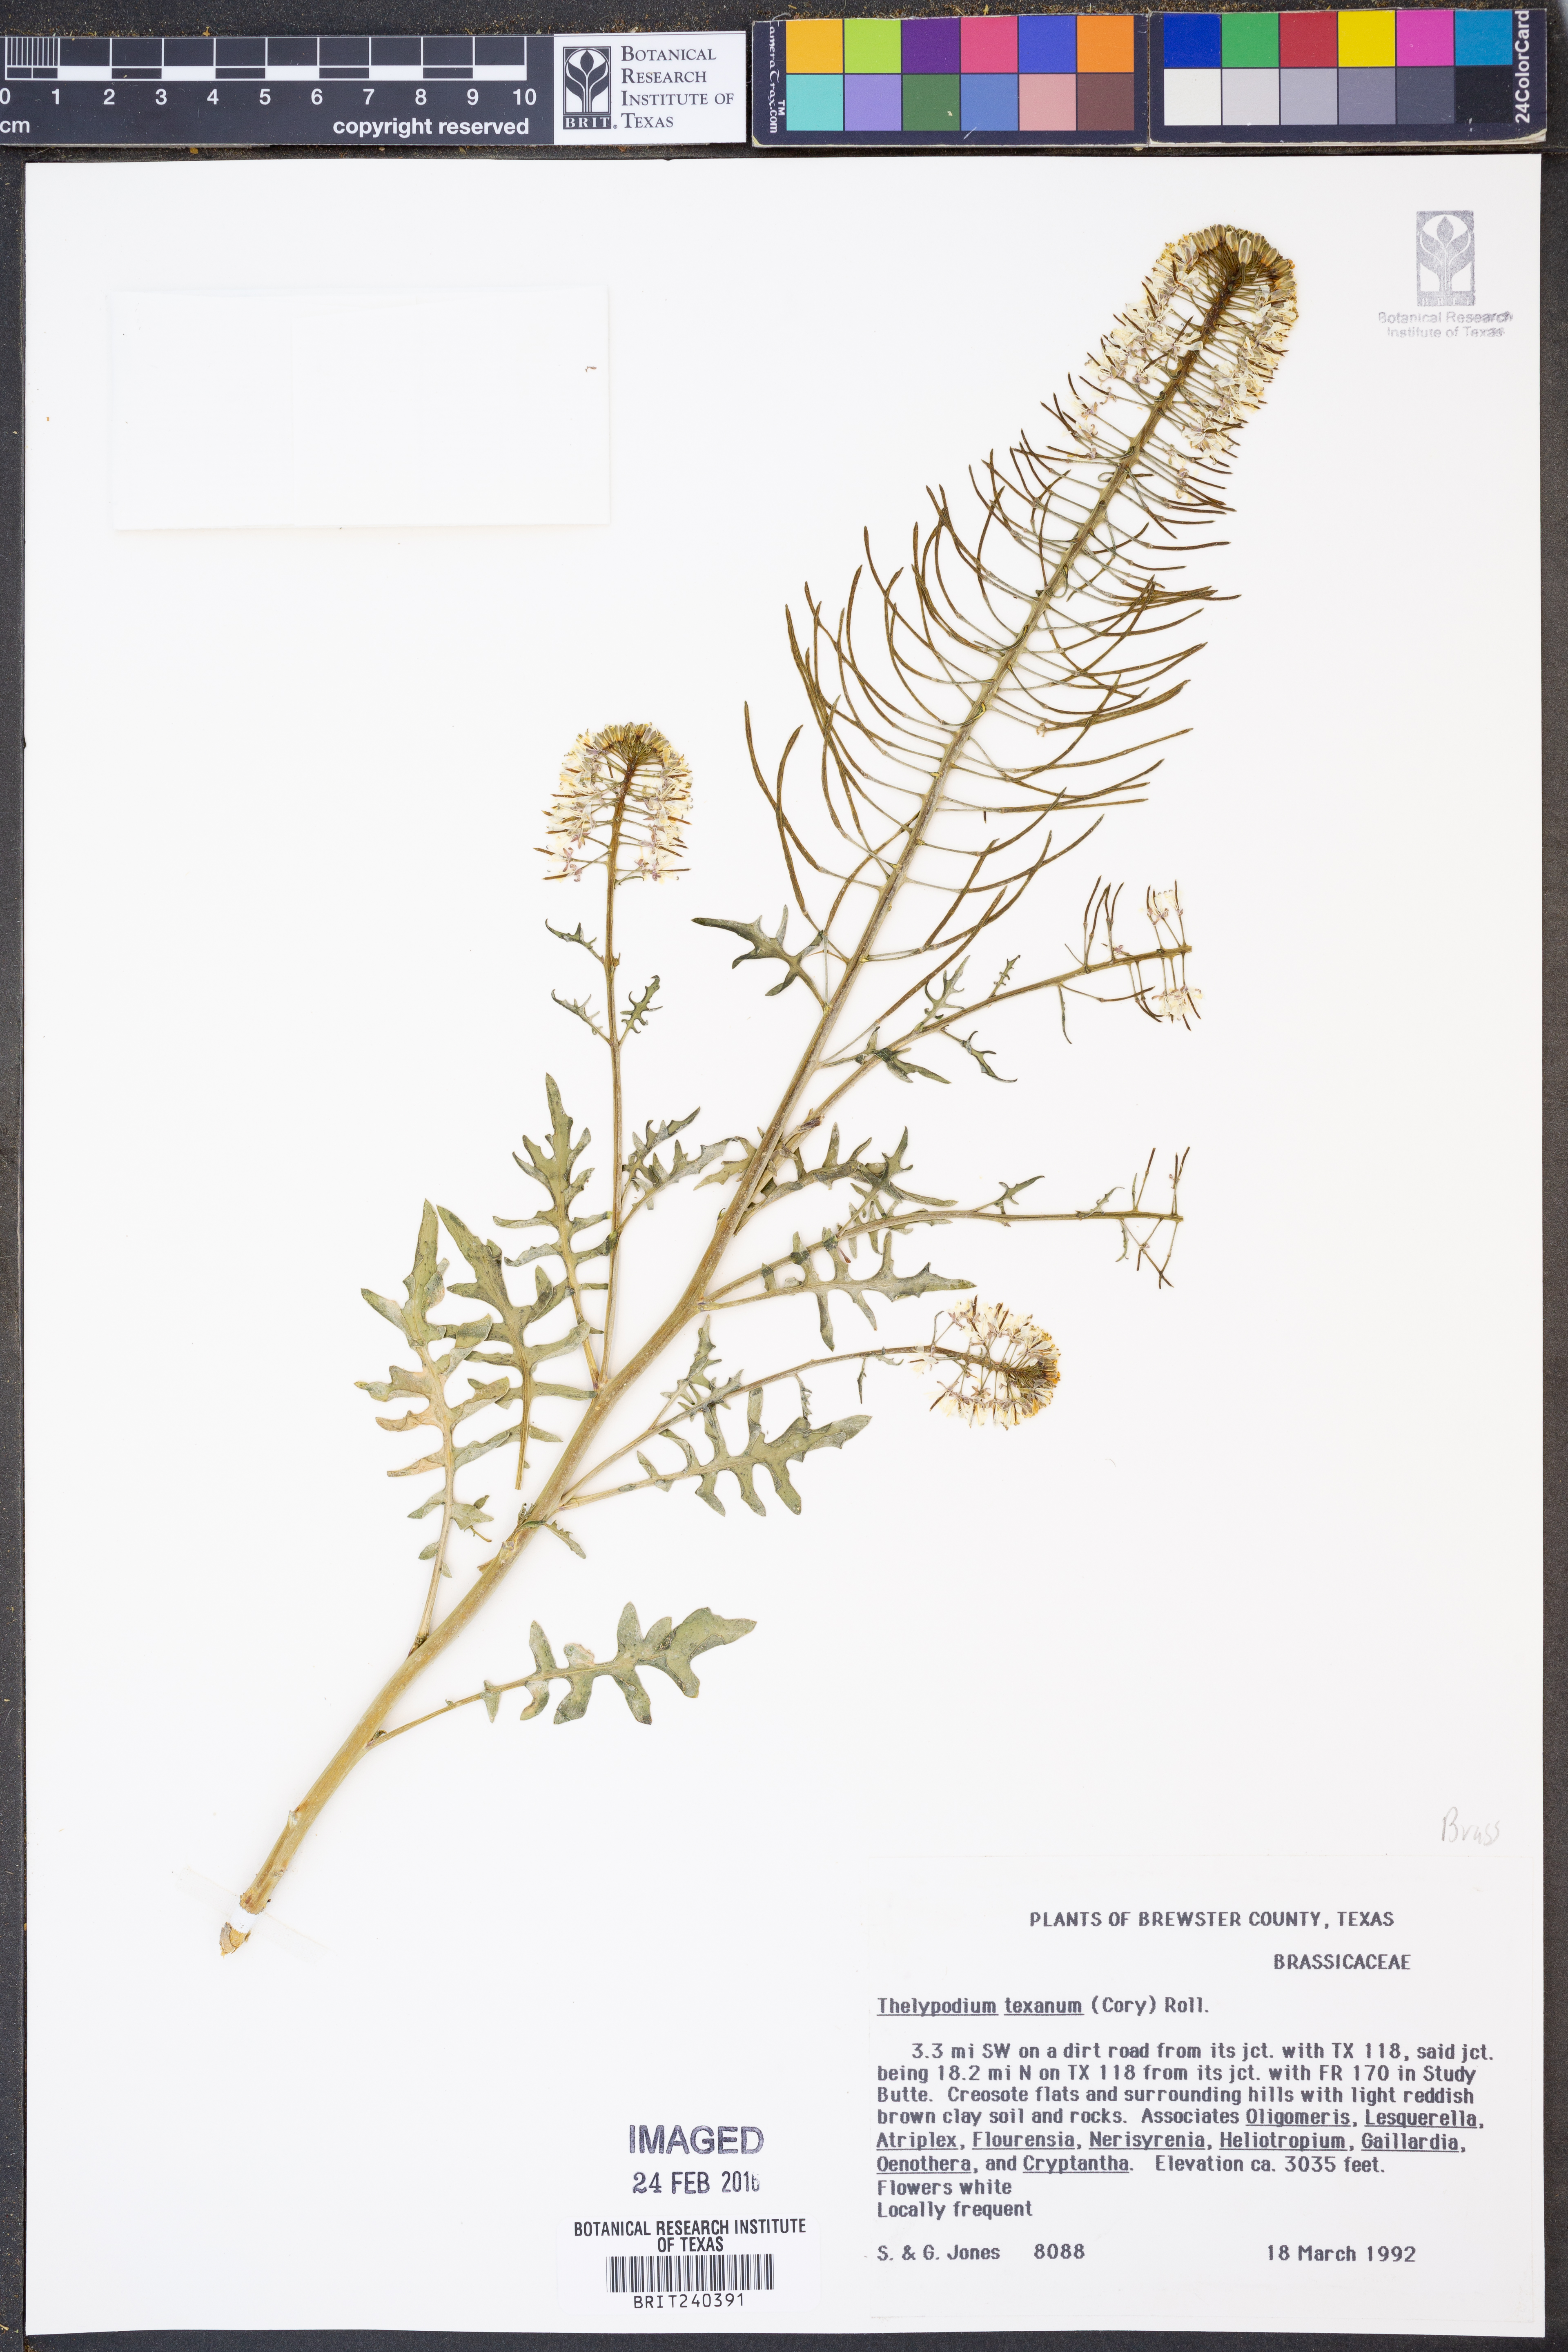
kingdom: Plantae
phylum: Tracheophyta
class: Magnoliopsida
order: Brassicales
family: Brassicaceae
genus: Thelypodium
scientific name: Thelypodium texanum
